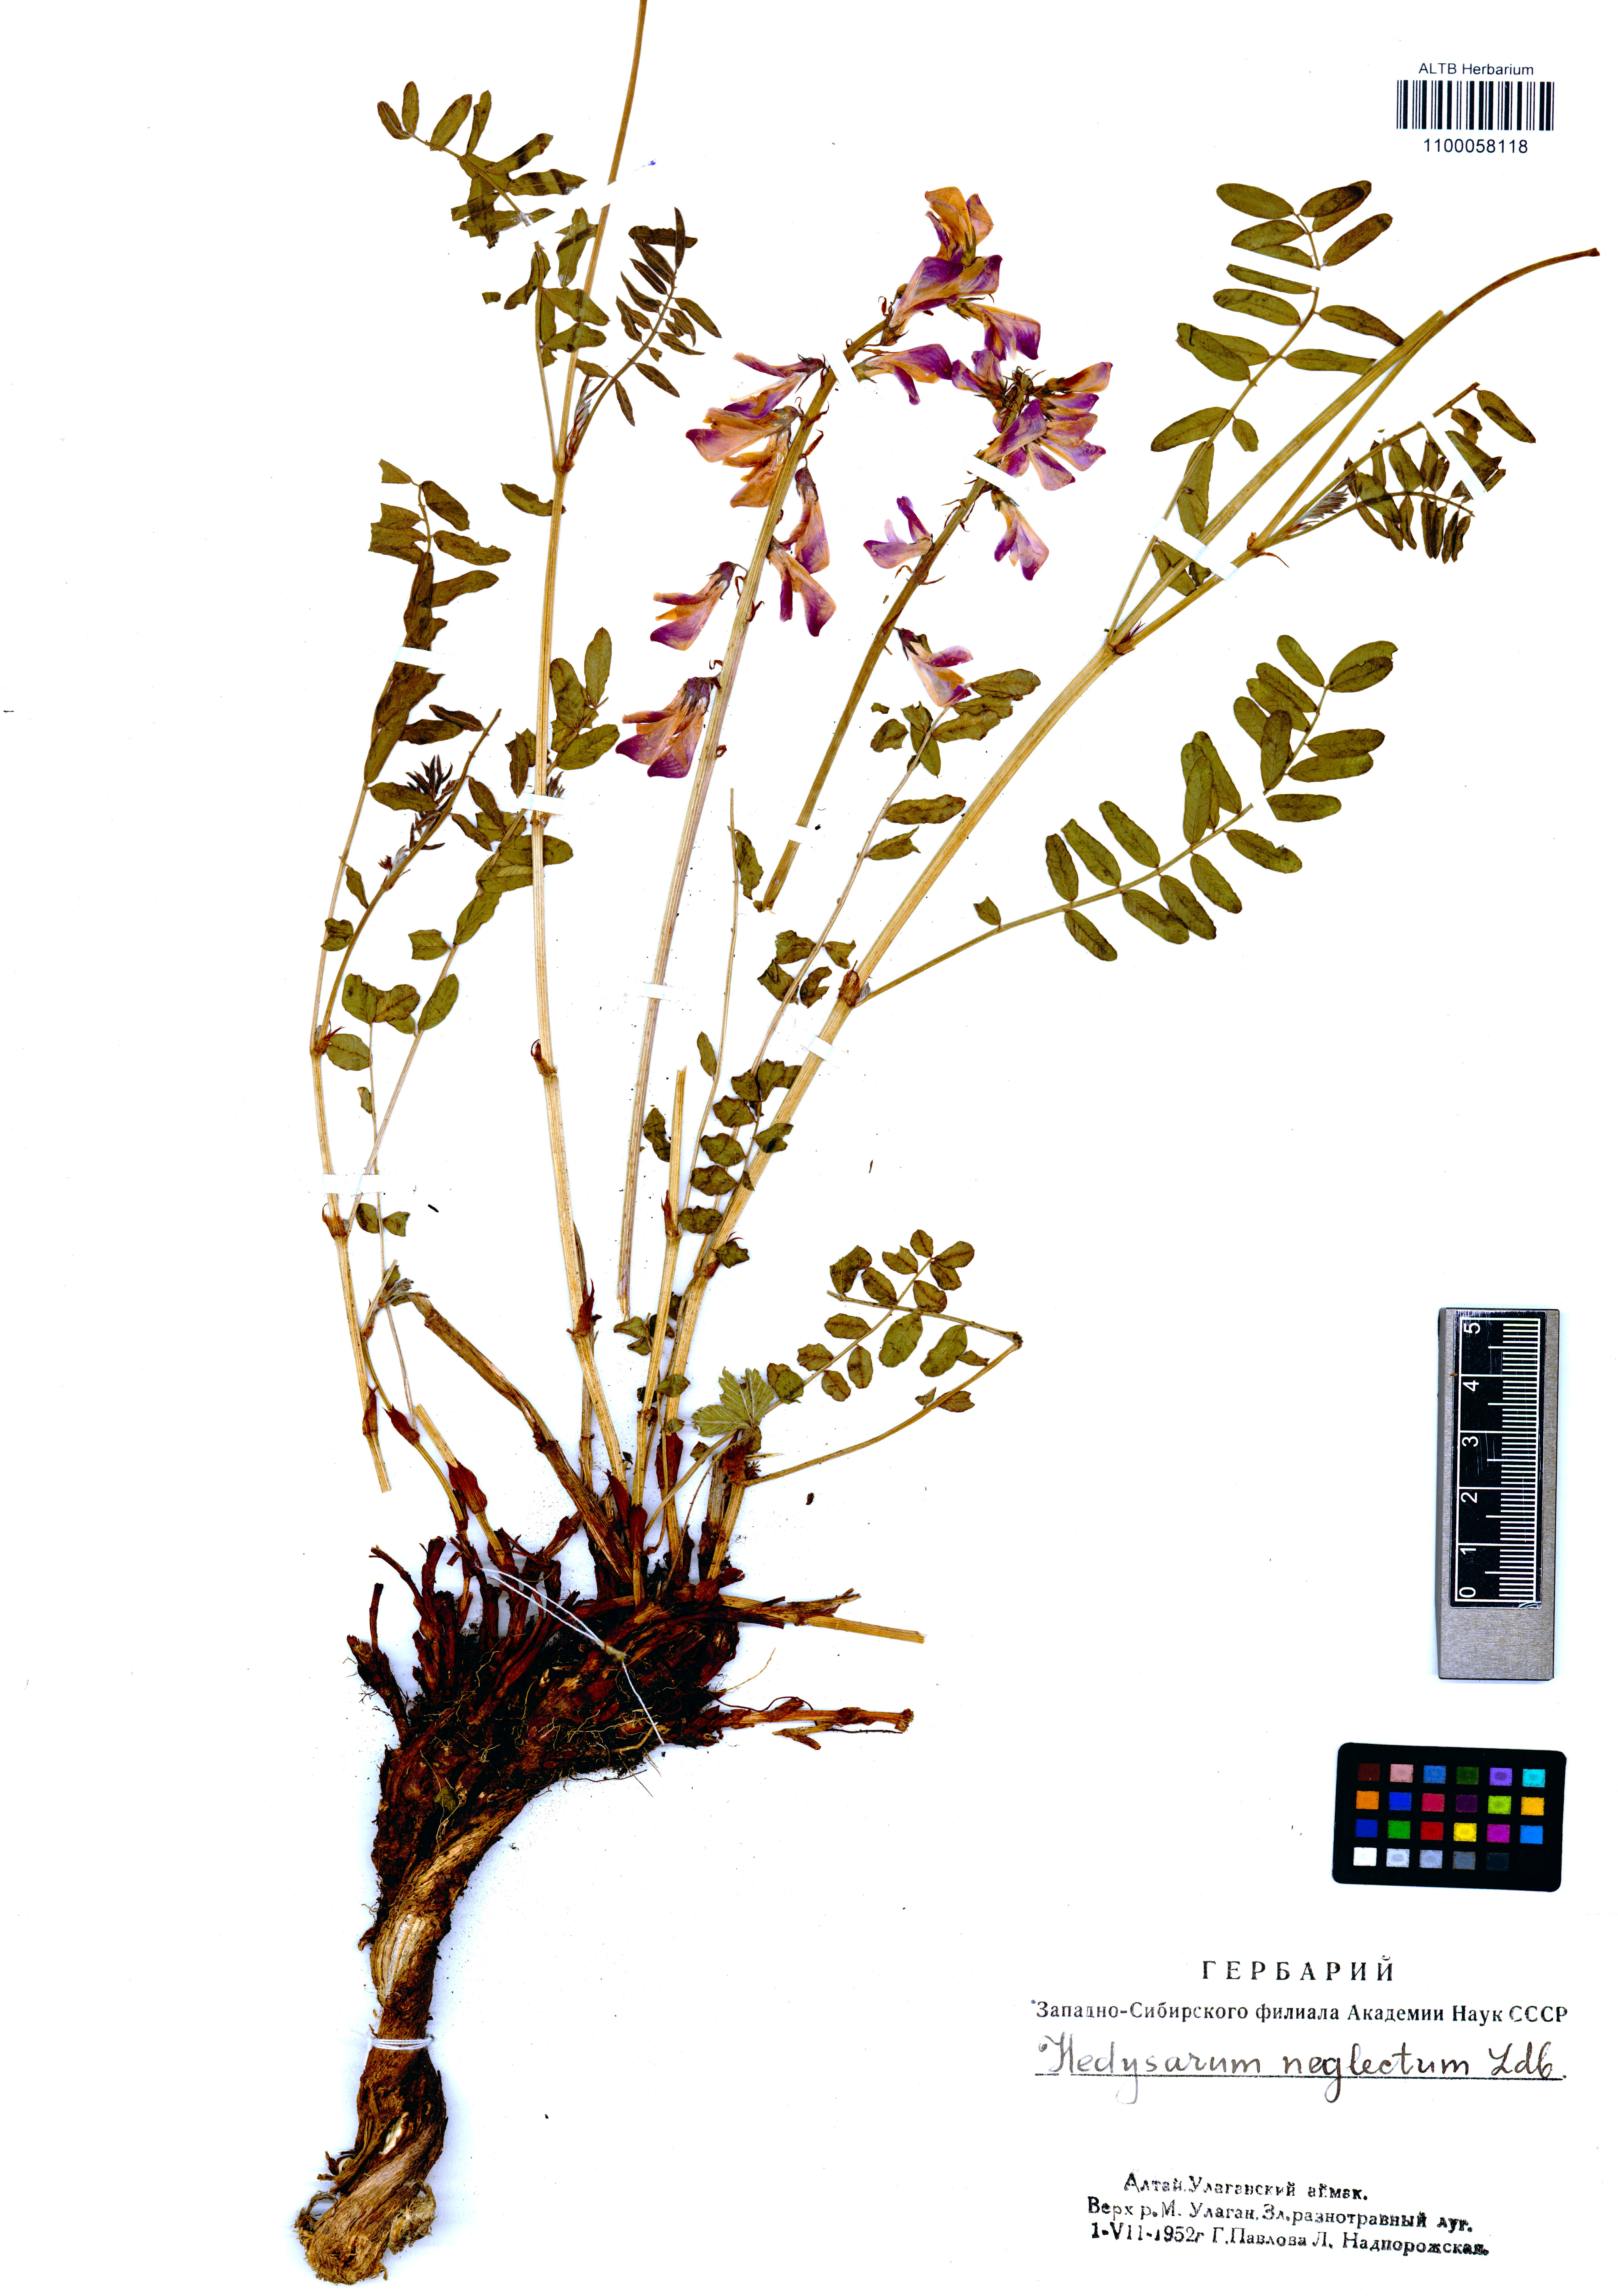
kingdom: Plantae
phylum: Tracheophyta
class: Magnoliopsida
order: Fabales
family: Fabaceae
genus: Hedysarum
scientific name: Hedysarum neglectum
